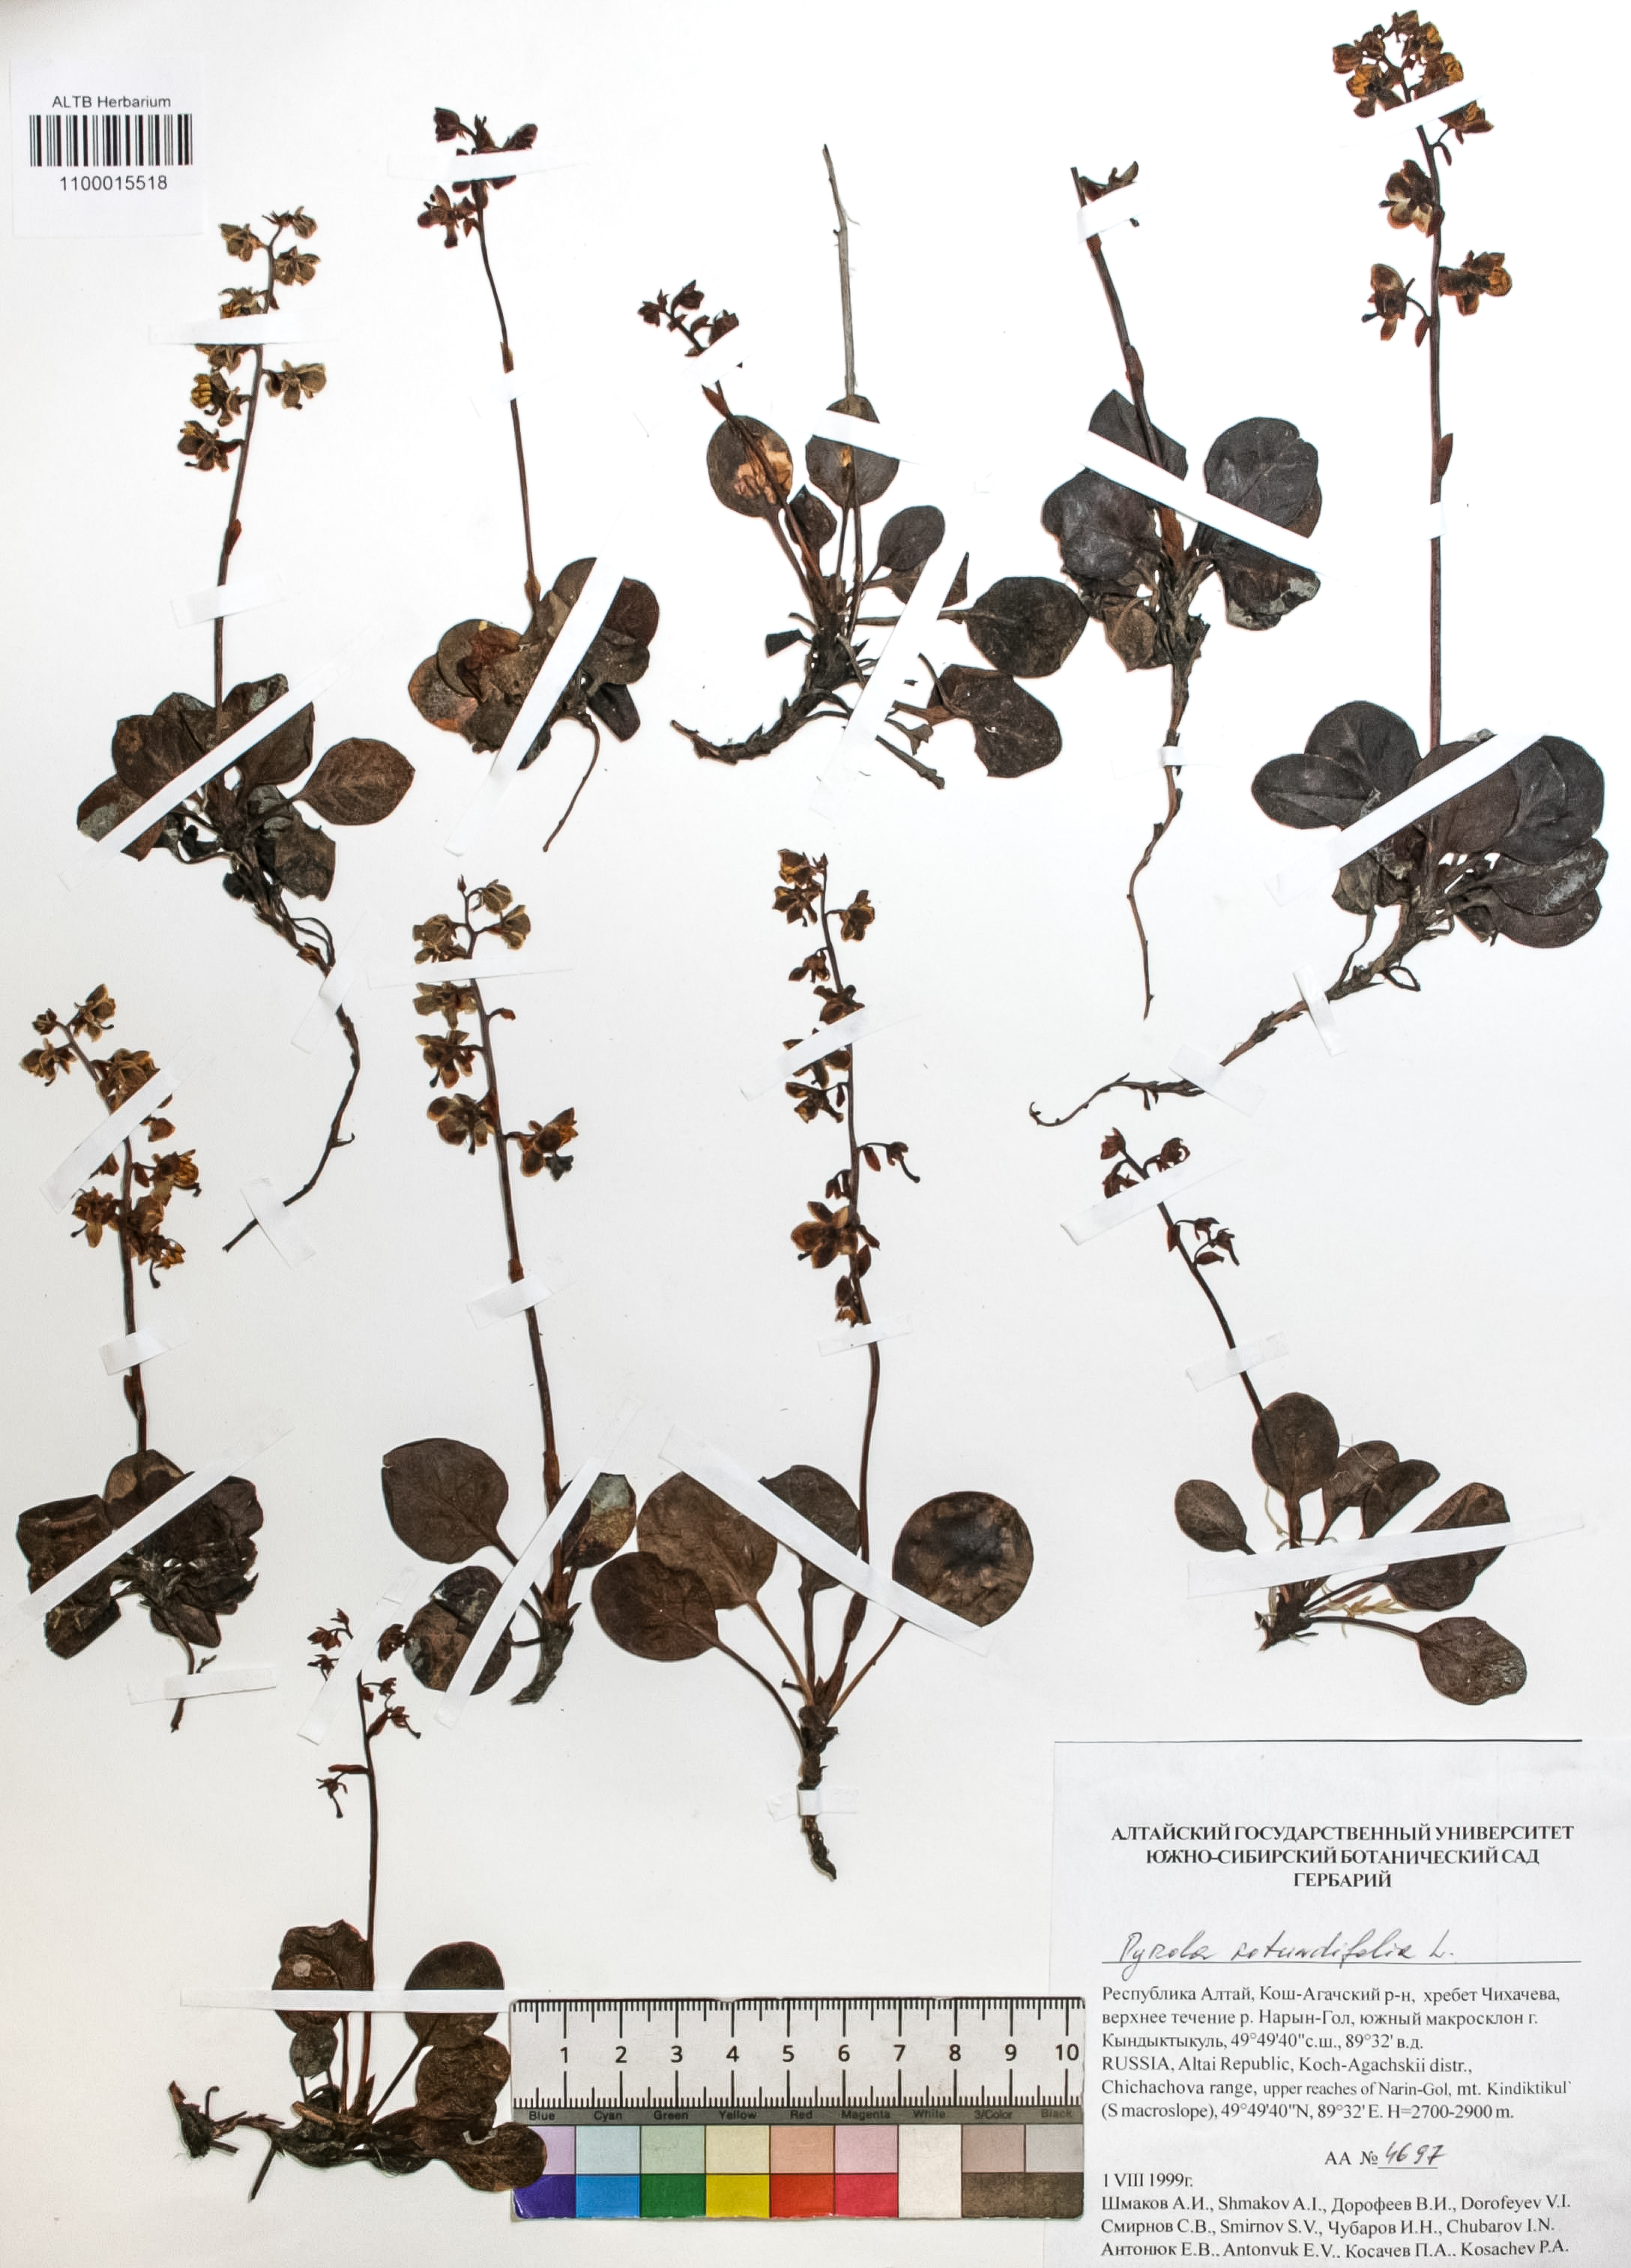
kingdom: Plantae
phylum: Tracheophyta
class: Magnoliopsida
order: Ericales
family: Ericaceae
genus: Pyrola
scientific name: Pyrola rotundifolia
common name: Round-leaved wintergreen
